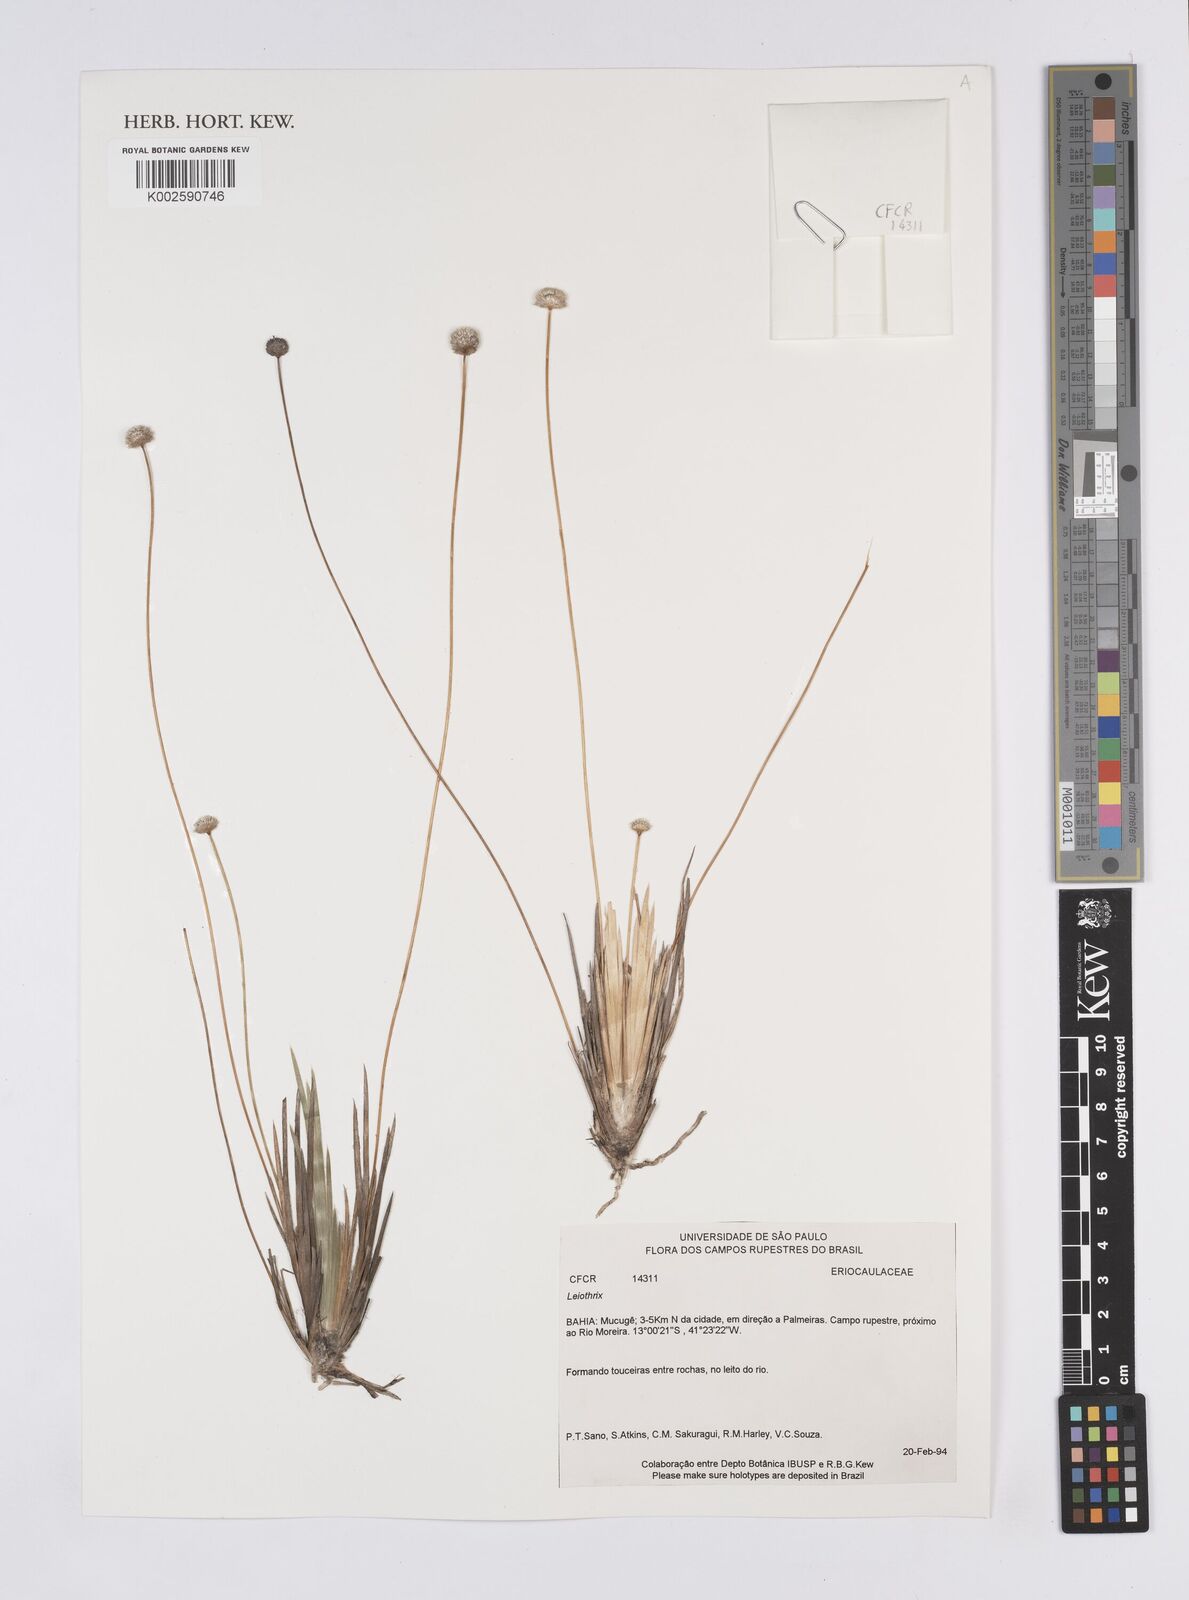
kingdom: Plantae
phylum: Tracheophyta
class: Liliopsida
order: Poales
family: Eriocaulaceae
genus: Leiothrix
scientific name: Leiothrix distichoclada
